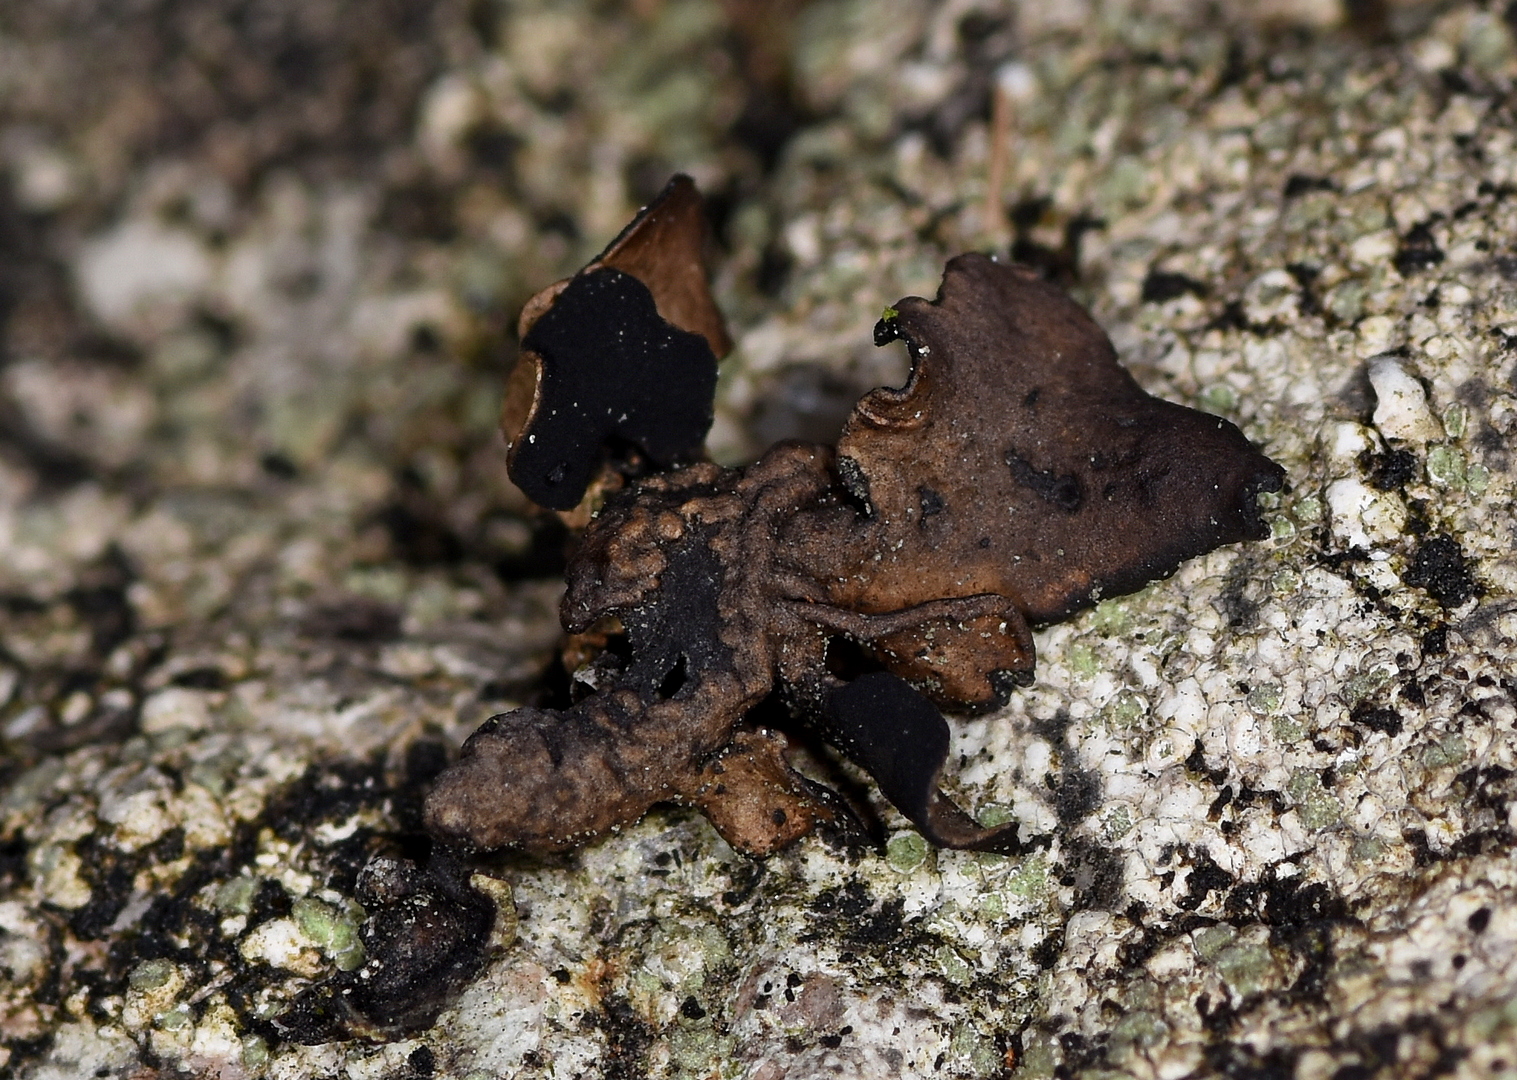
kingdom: Fungi
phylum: Ascomycota
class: Lecanoromycetes
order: Umbilicariales
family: Umbilicariaceae
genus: Umbilicaria
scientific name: Umbilicaria polyphylla
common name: glat navlelav
